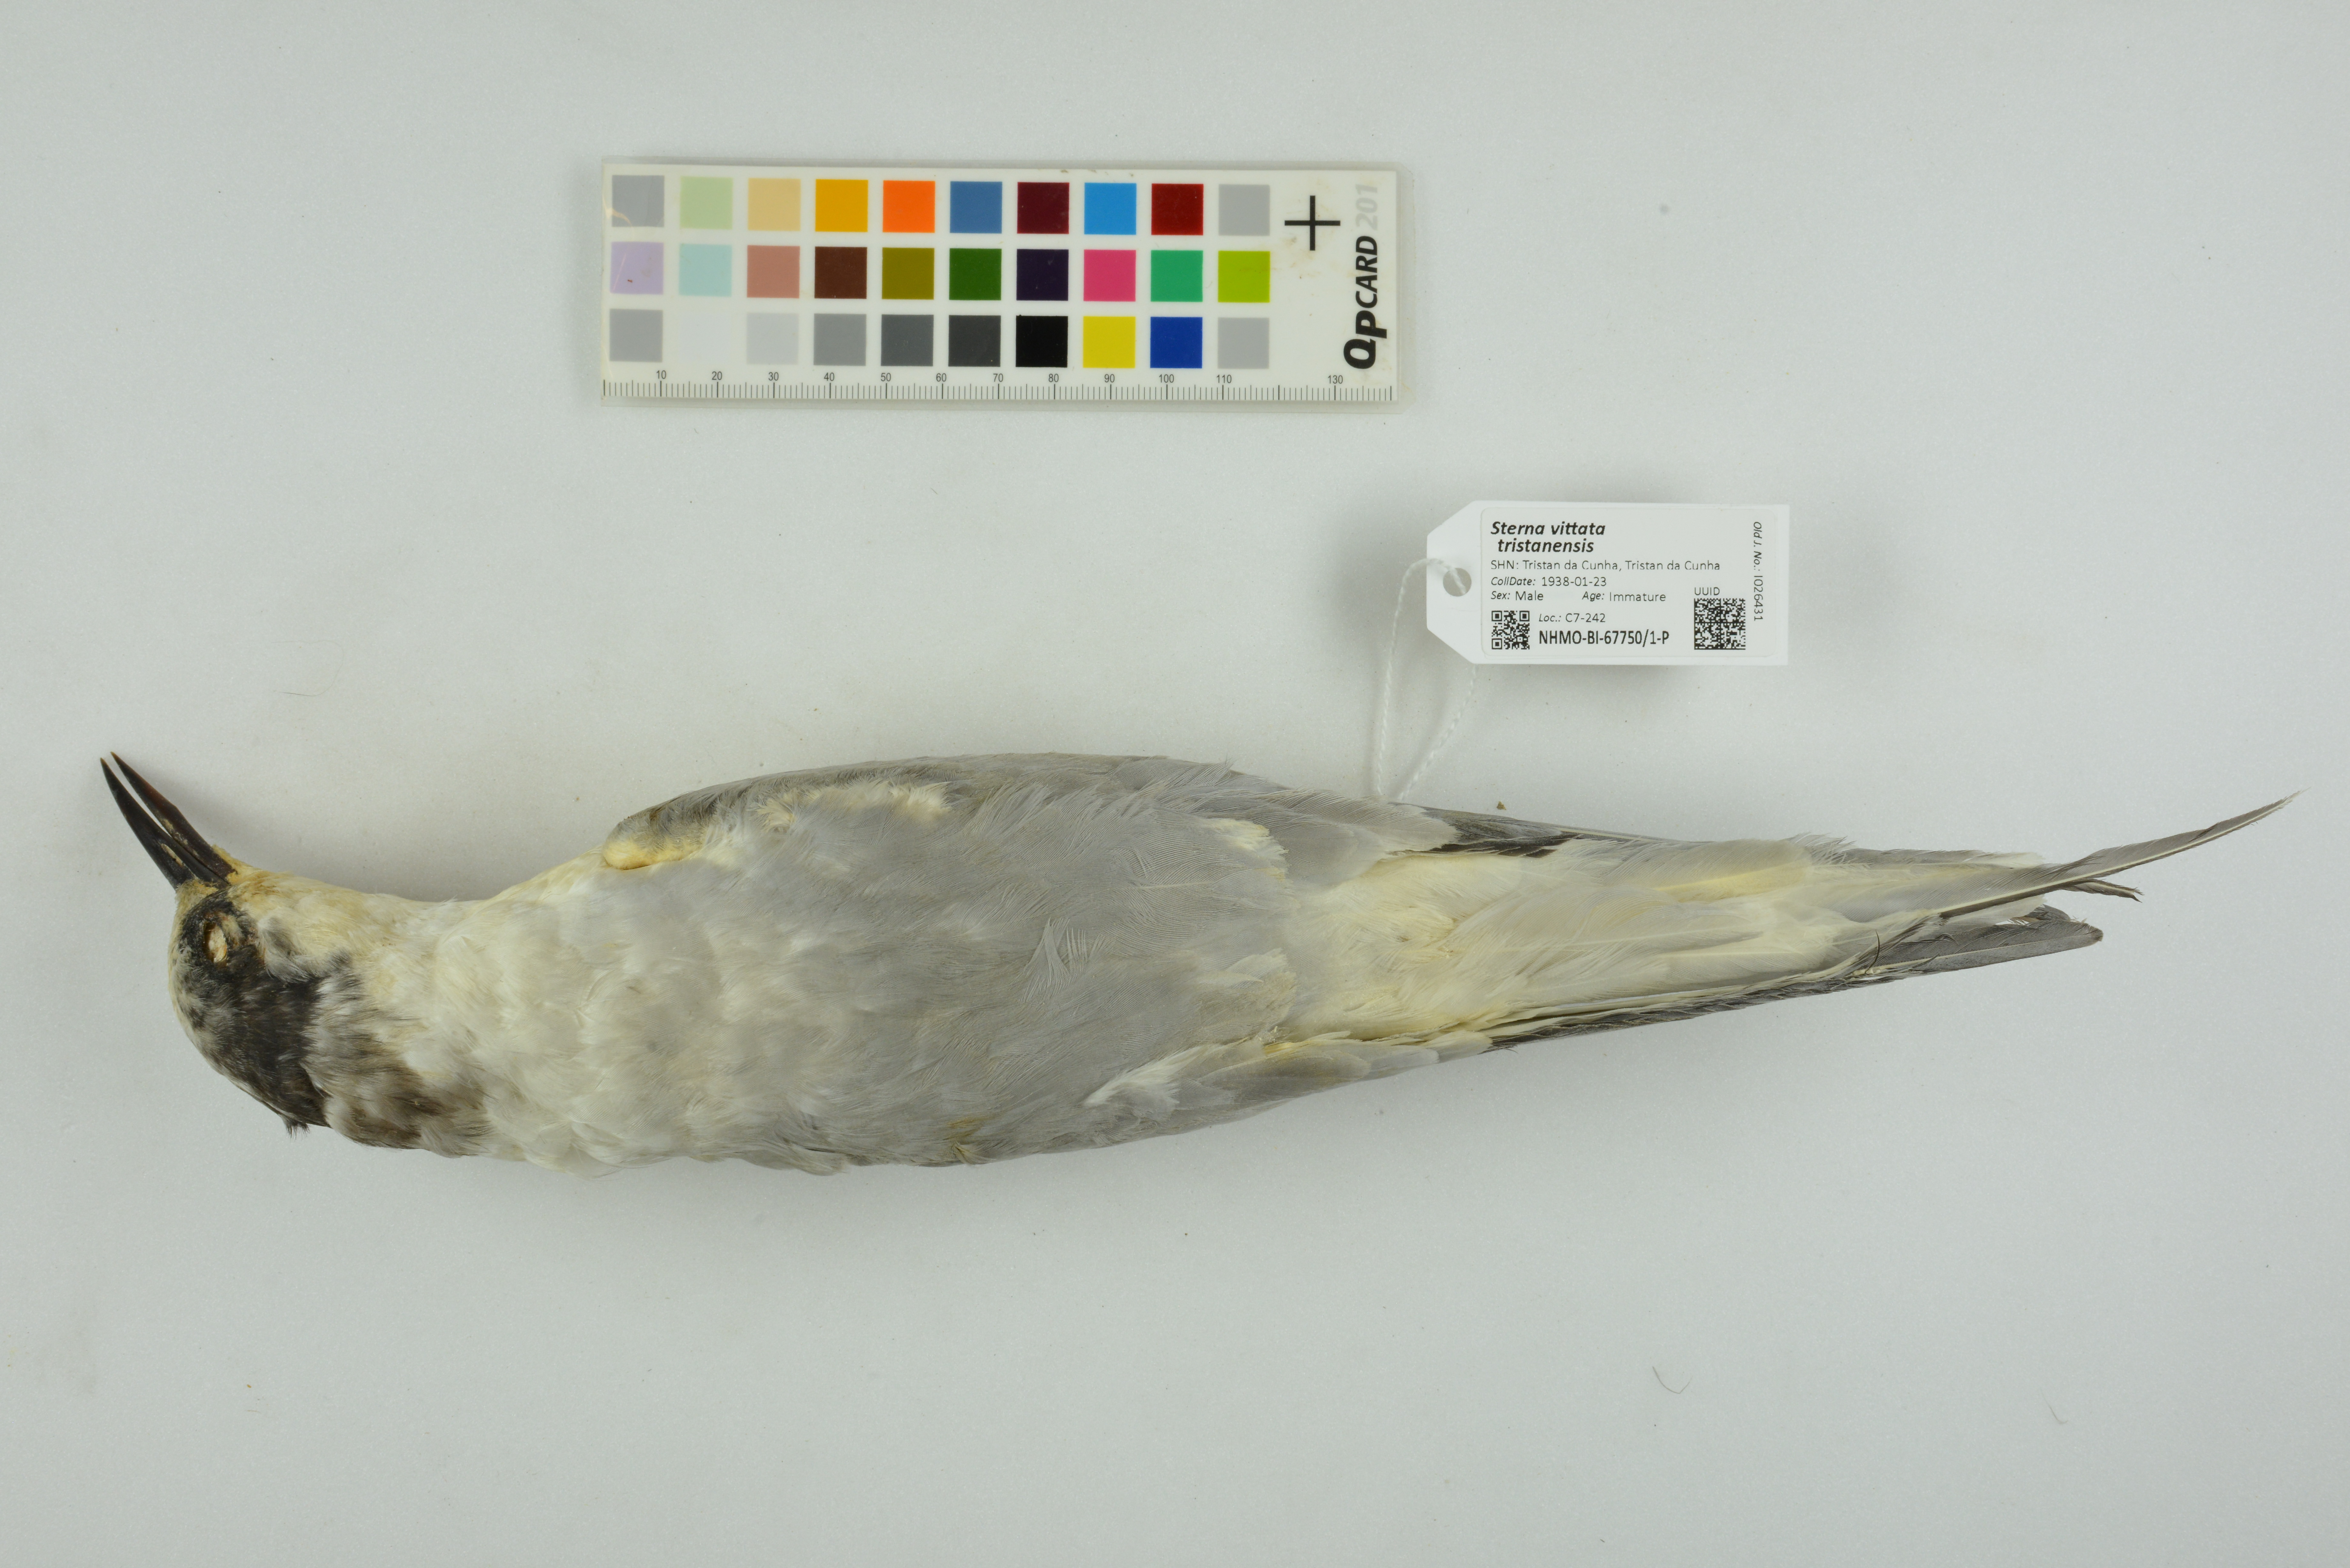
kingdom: Animalia
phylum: Chordata
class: Aves
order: Charadriiformes
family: Laridae
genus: Sterna
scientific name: Sterna vittata
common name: Antarctic tern
